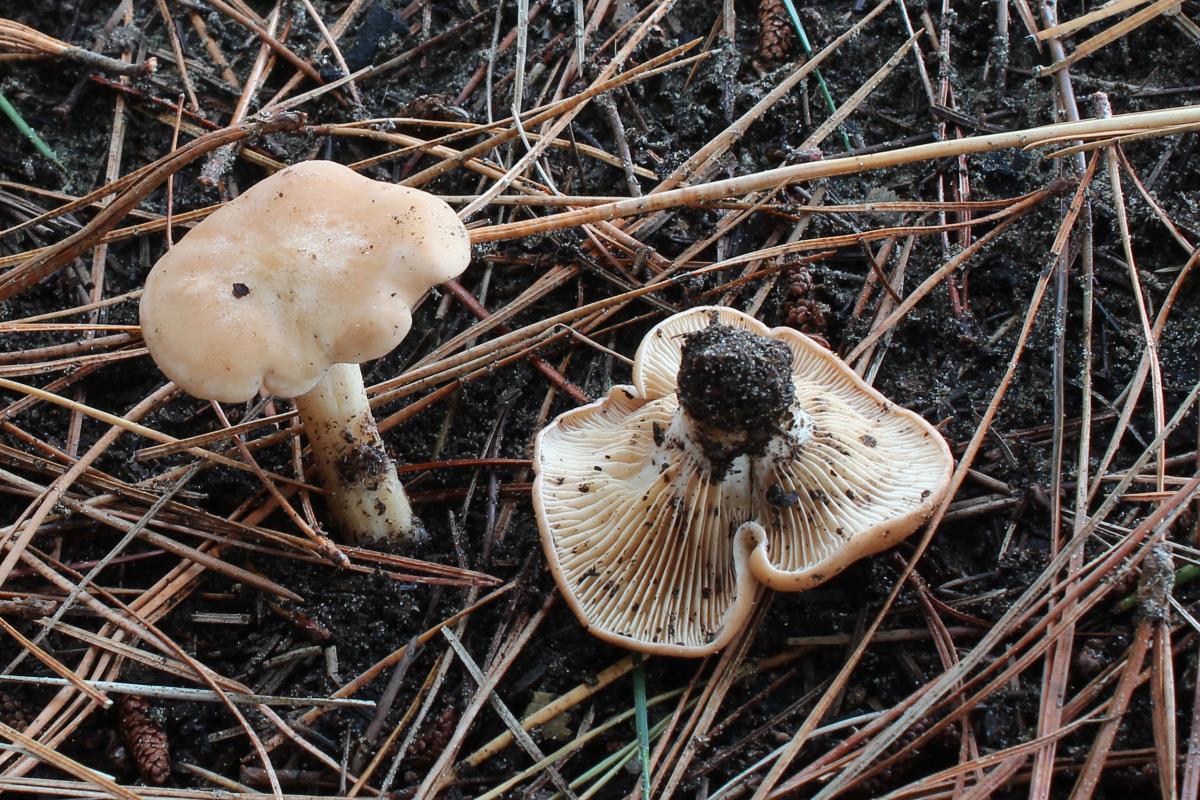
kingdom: Fungi
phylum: Basidiomycota
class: Agaricomycetes
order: Agaricales
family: Entolomataceae
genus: Clitopilus
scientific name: Clitopilus piperitus
